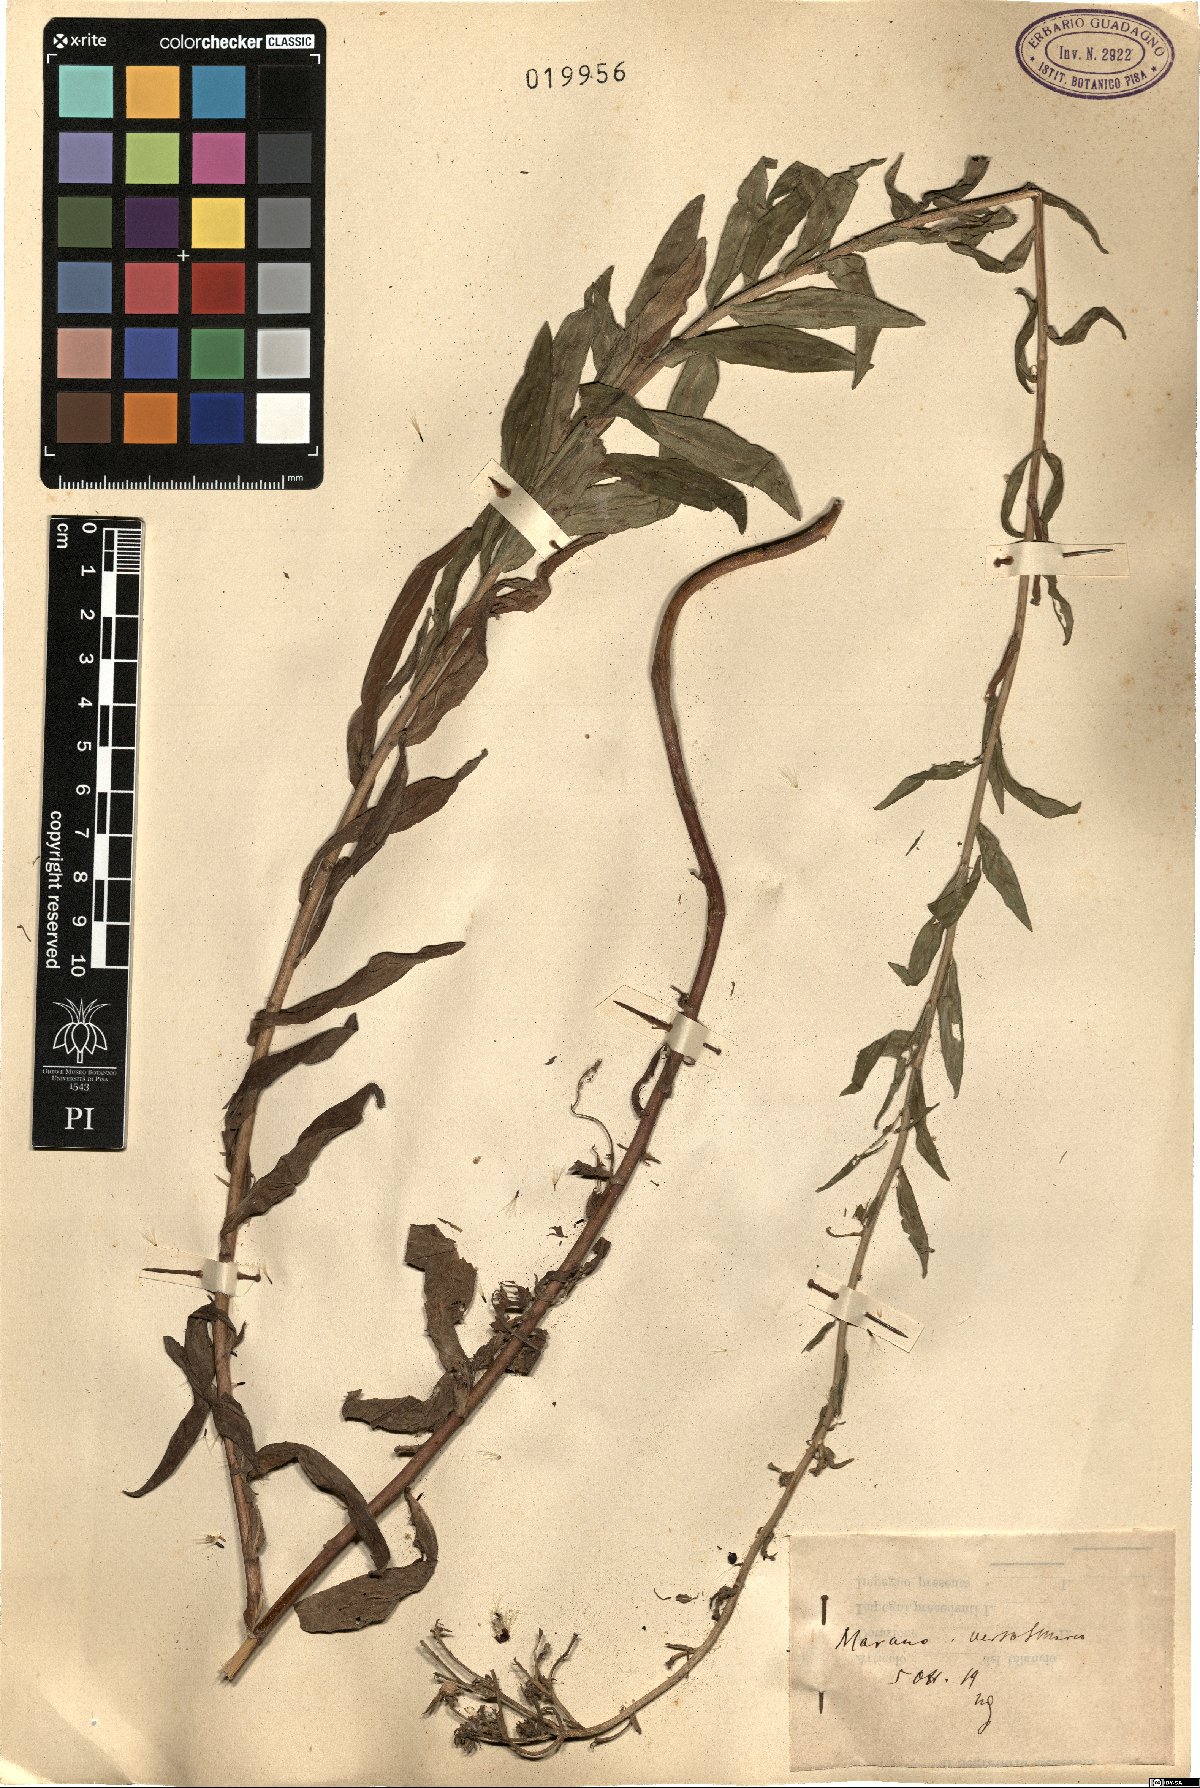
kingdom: Plantae
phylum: Tracheophyta
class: Magnoliopsida
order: Asterales
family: Asteraceae
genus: Hieracium
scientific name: Hieracium
